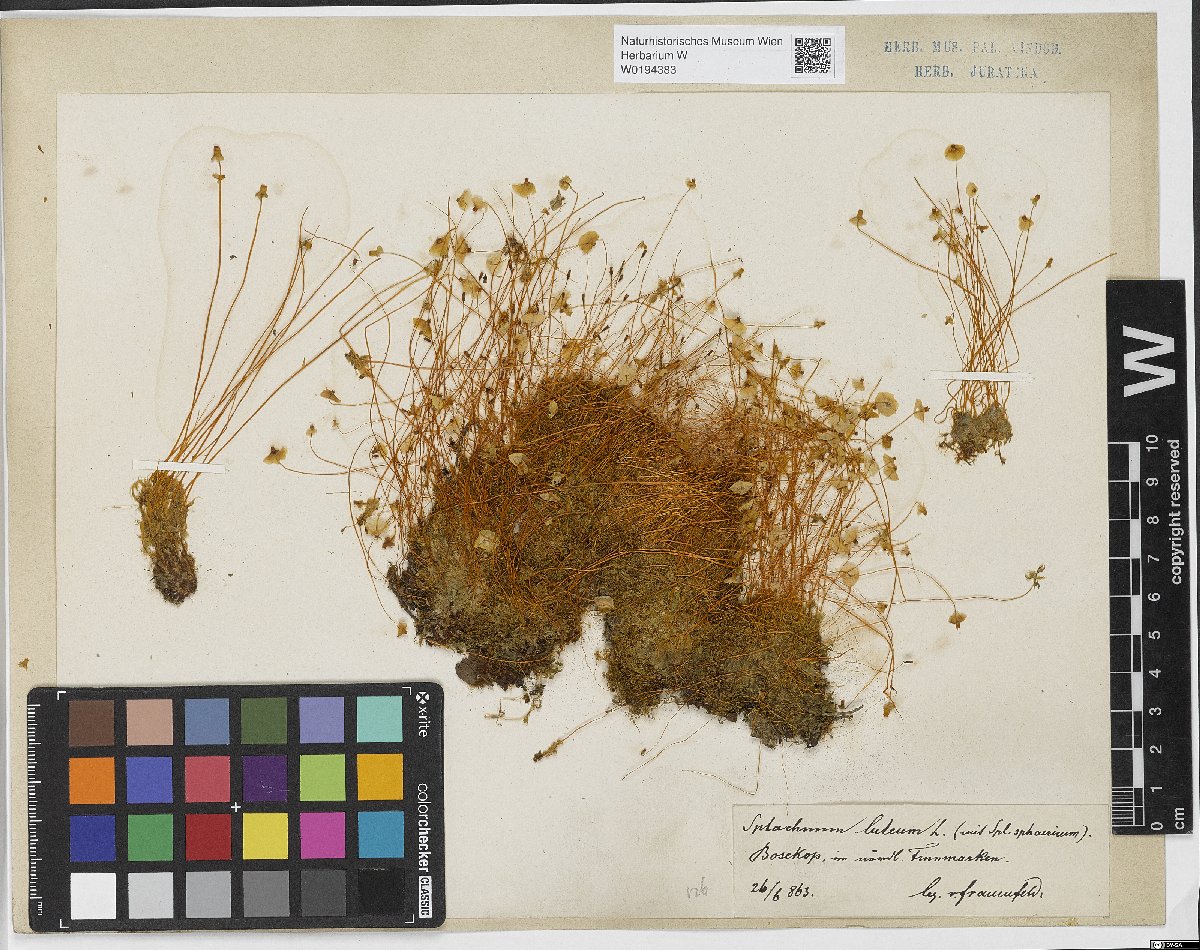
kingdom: Plantae
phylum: Bryophyta
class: Bryopsida
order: Splachnales
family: Splachnaceae
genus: Splachnum
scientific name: Splachnum luteum
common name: Yellow dung moss
